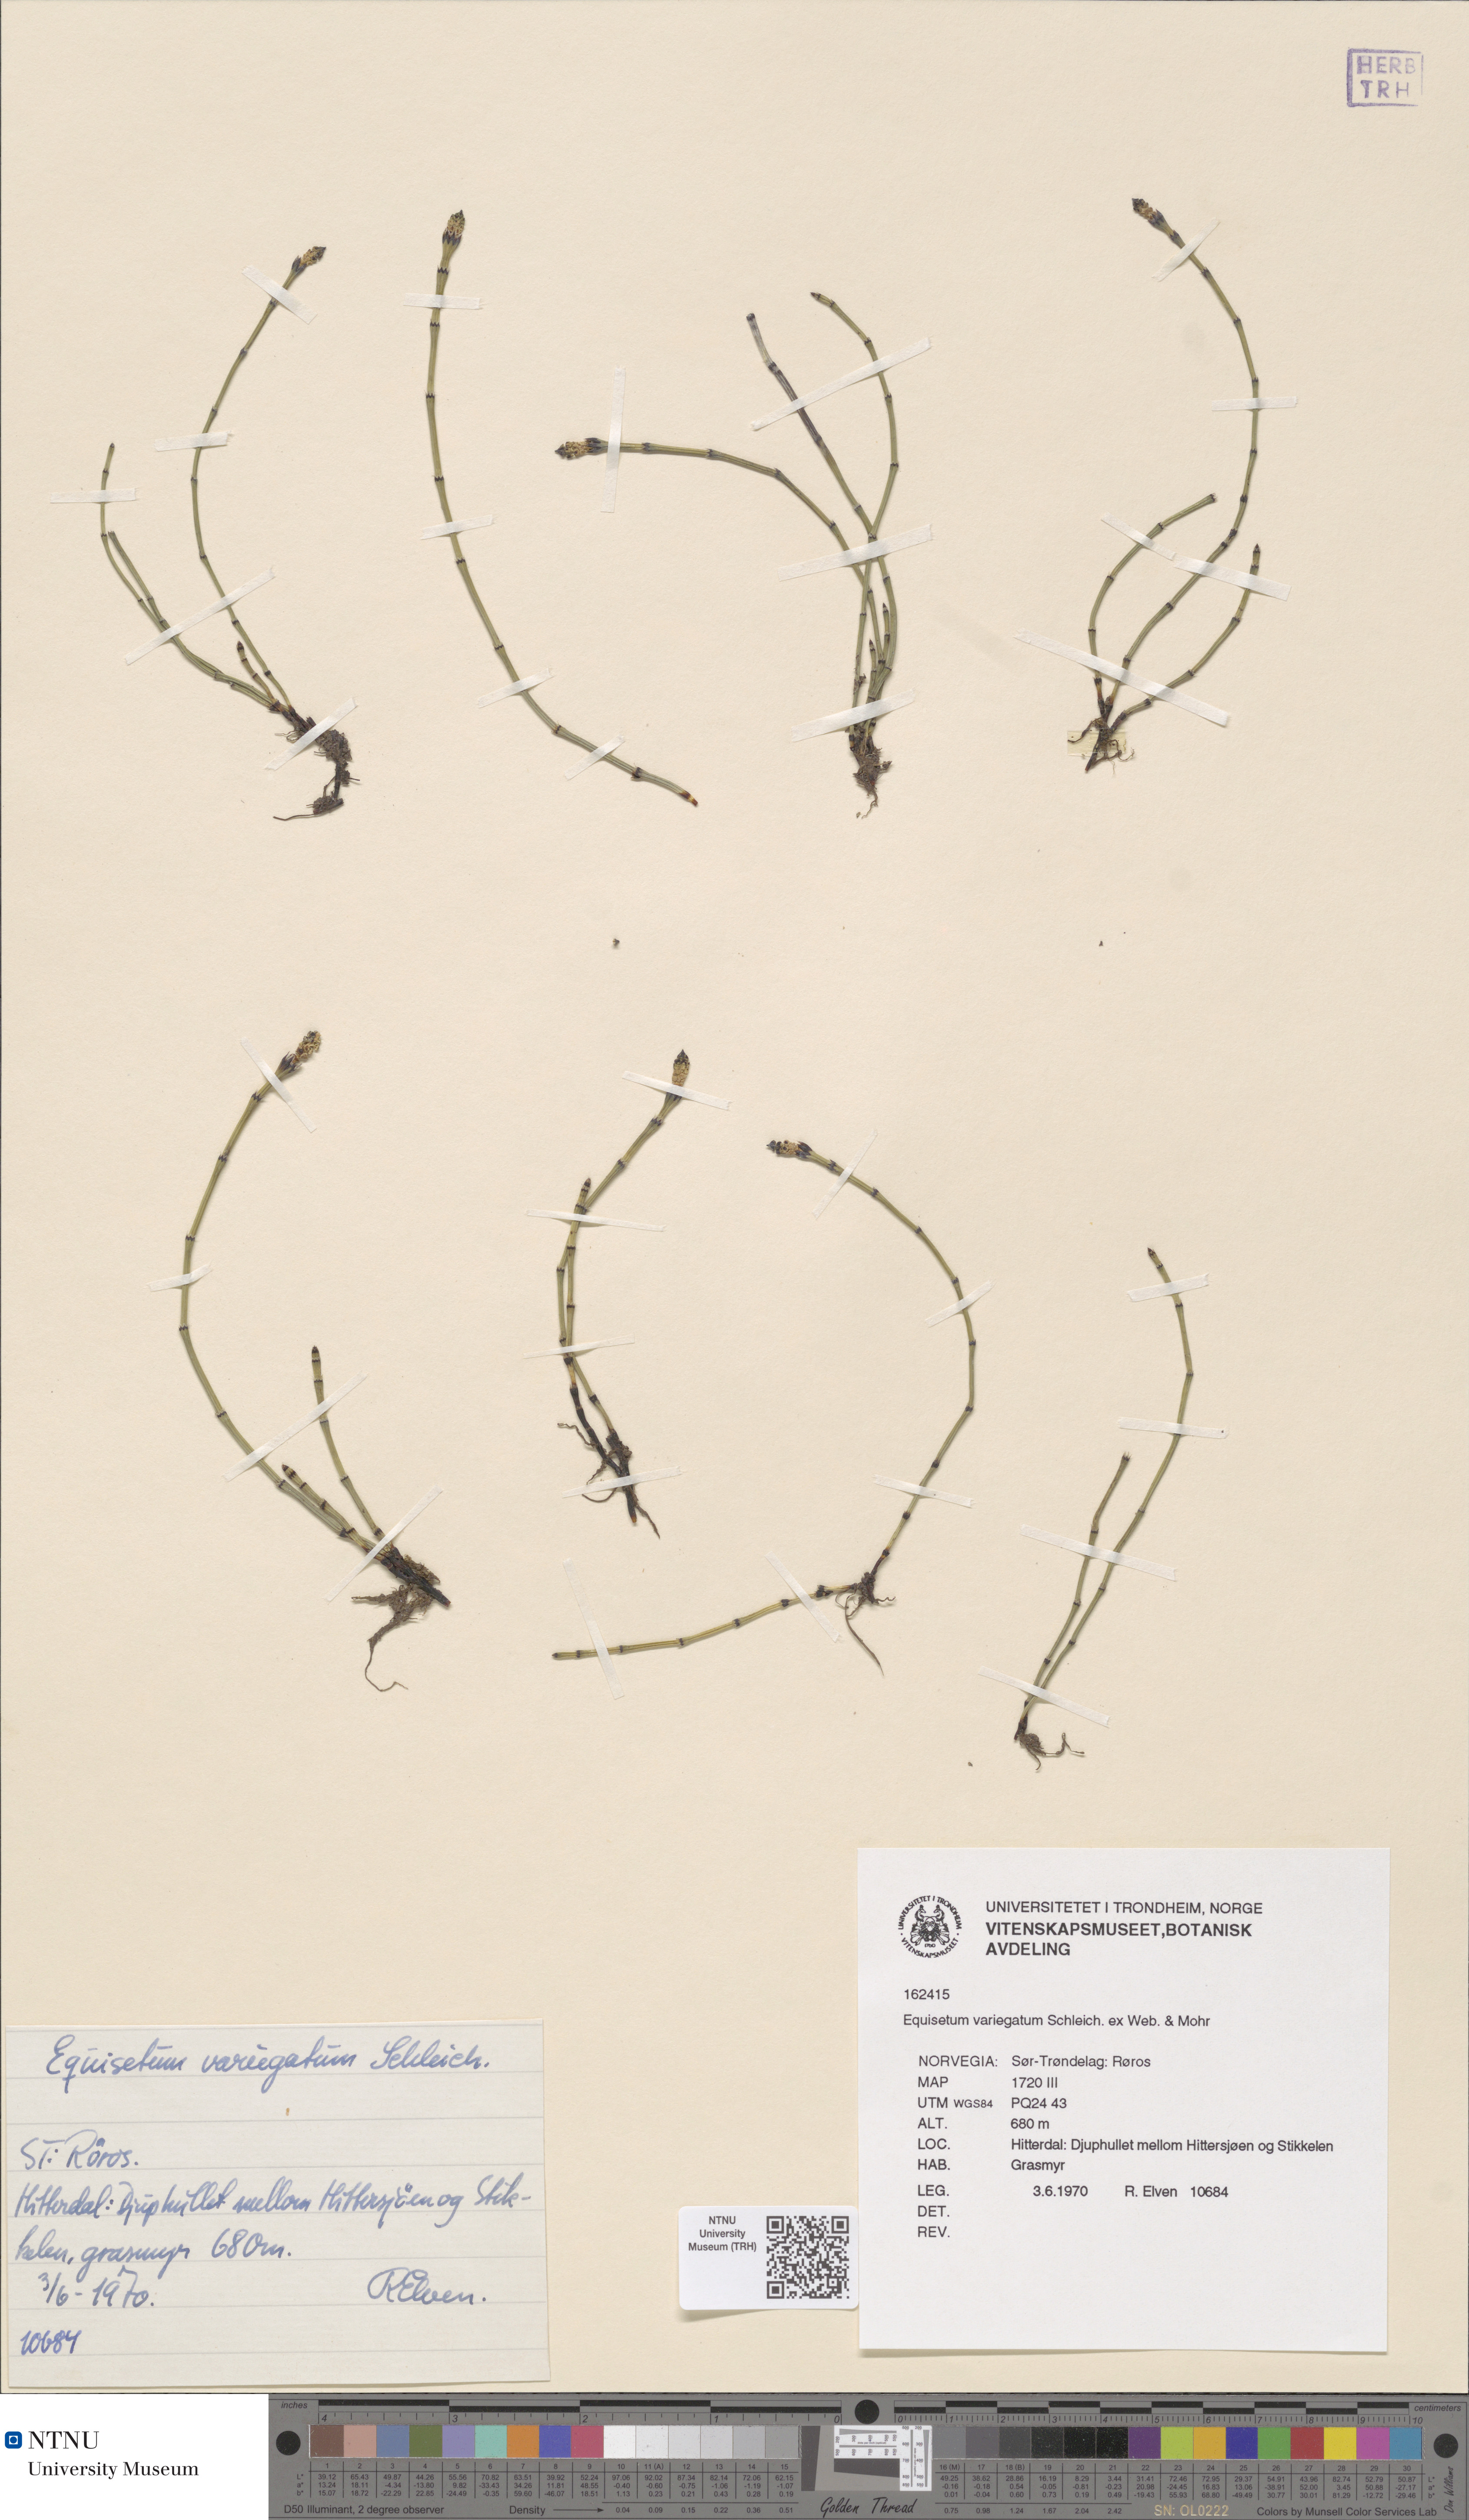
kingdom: Plantae
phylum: Tracheophyta
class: Polypodiopsida
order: Equisetales
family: Equisetaceae
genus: Equisetum
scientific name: Equisetum variegatum
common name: Variegated horsetail
